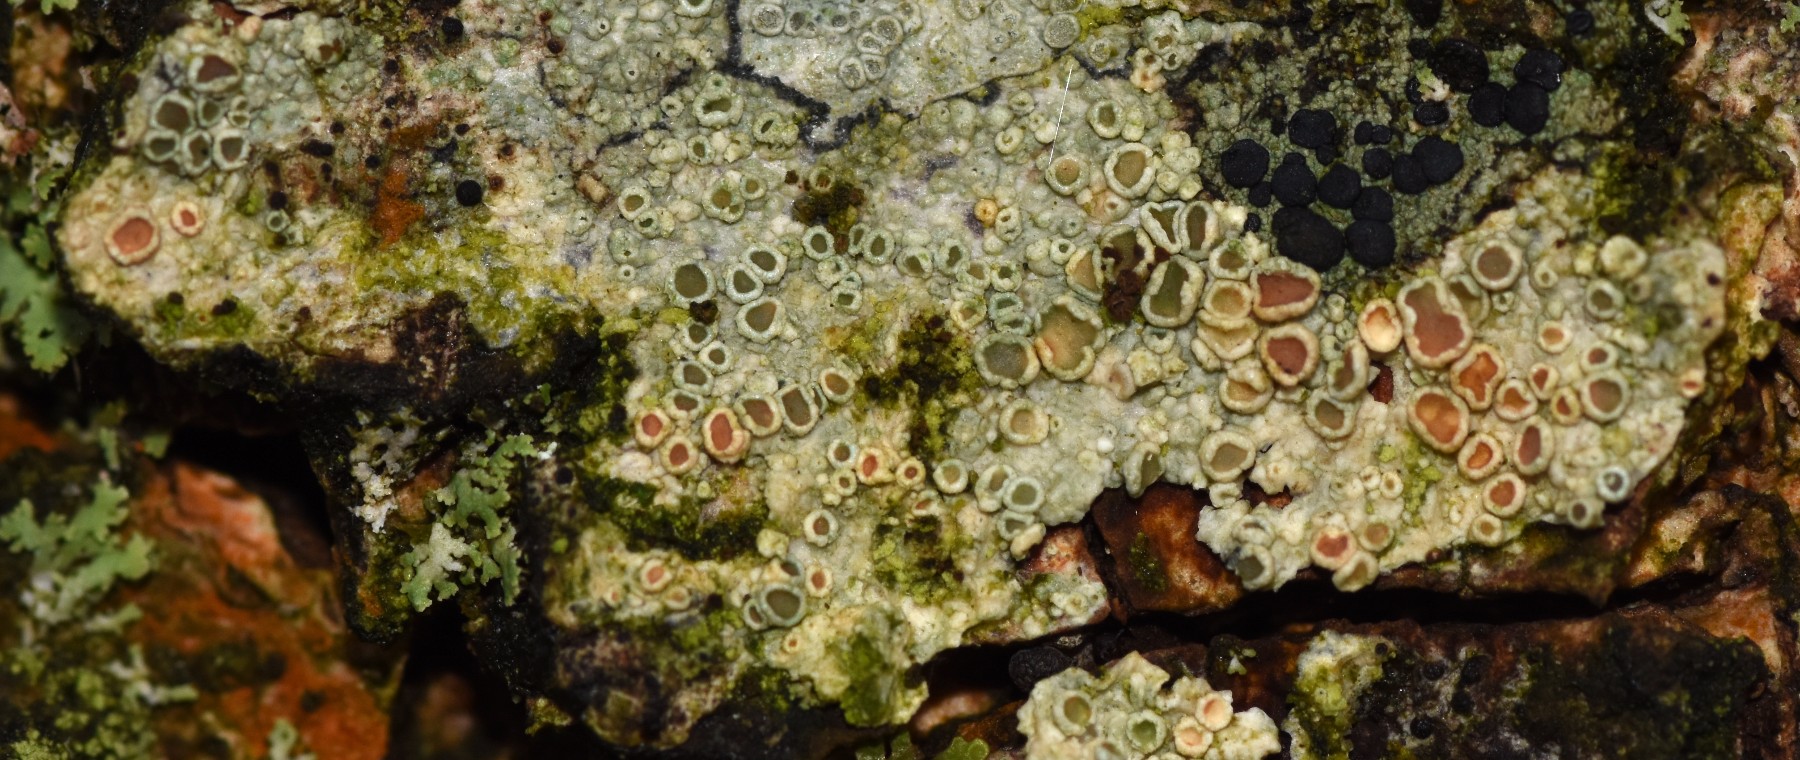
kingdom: Fungi
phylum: Ascomycota
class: Lecanoromycetes
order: Lecanorales
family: Lecanoraceae
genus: Lecanora
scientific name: Lecanora chlarotera
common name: brun kantskivelav
